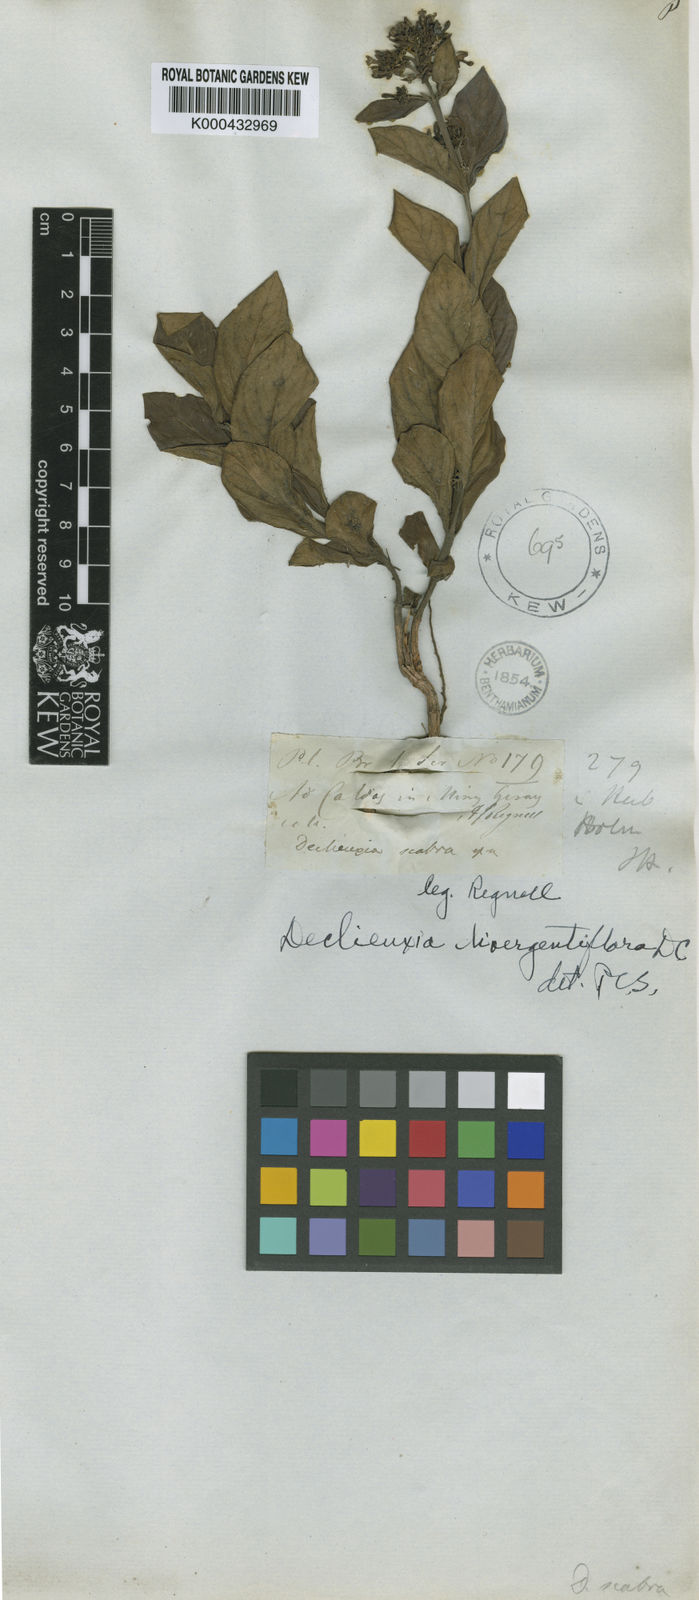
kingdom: Plantae
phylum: Tracheophyta
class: Magnoliopsida
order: Gentianales
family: Rubiaceae
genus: Declieuxia
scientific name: Declieuxia
